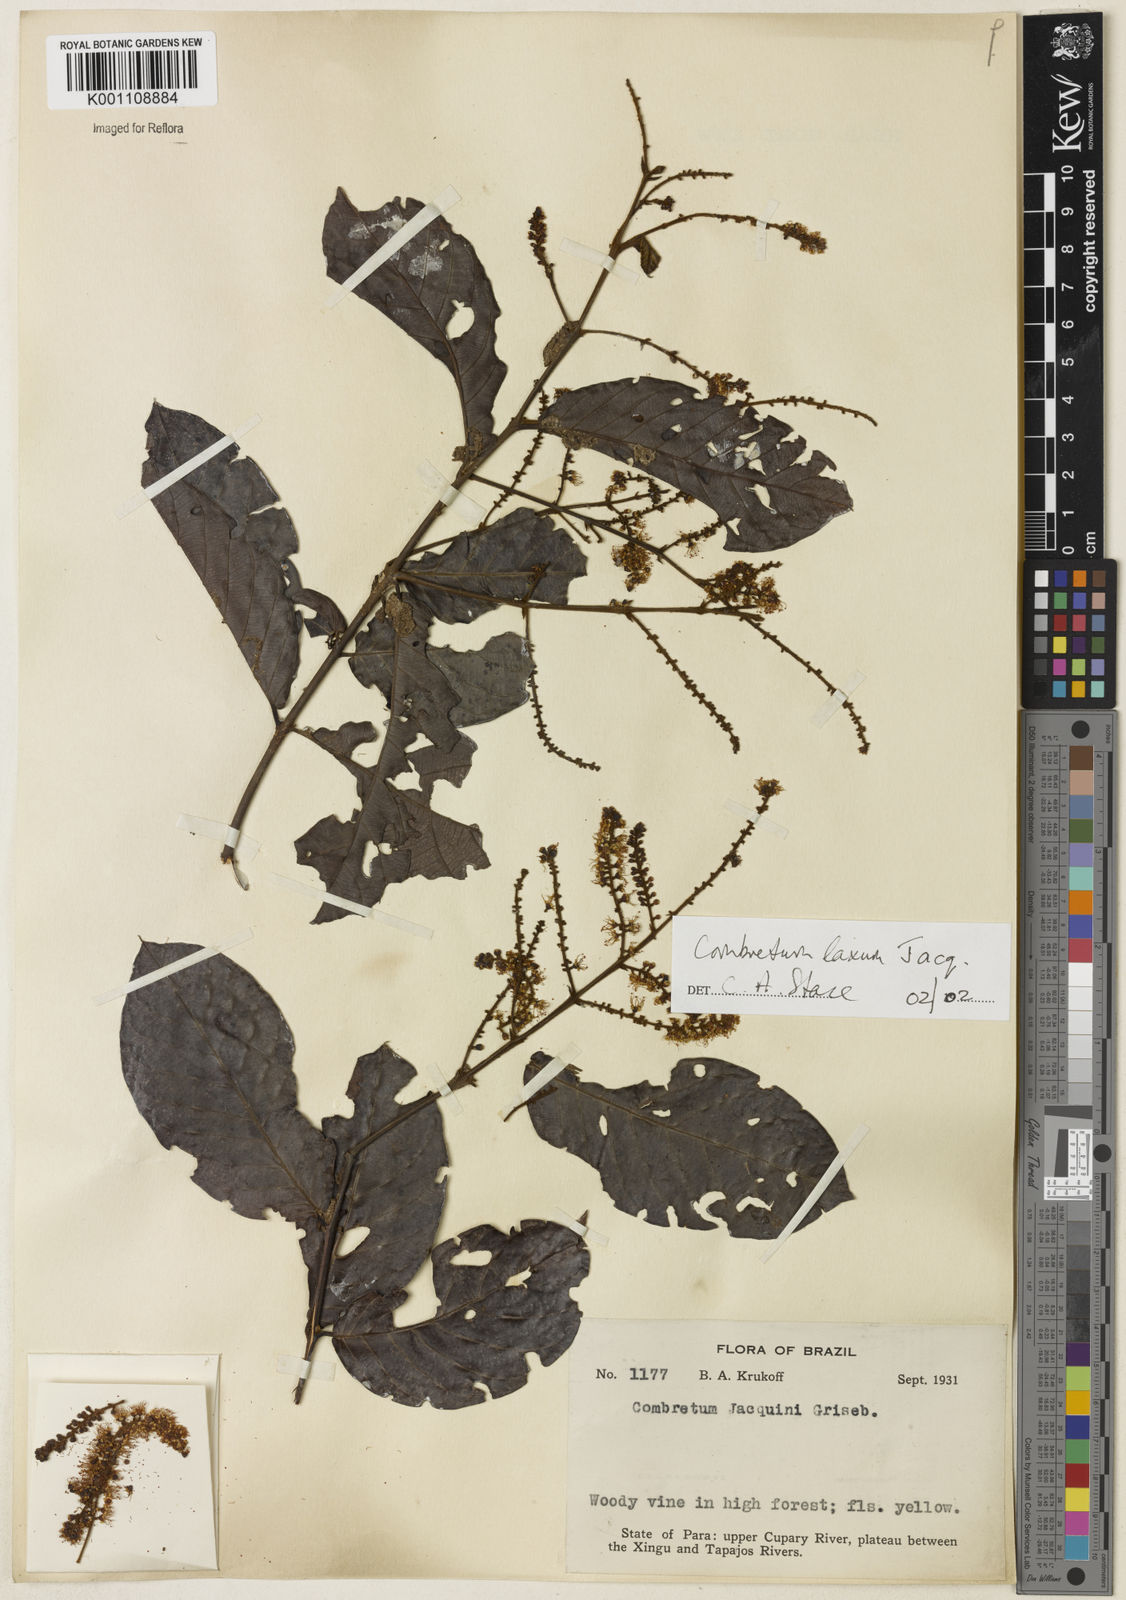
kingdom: Plantae
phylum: Tracheophyta
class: Magnoliopsida
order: Myrtales
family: Combretaceae
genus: Combretum
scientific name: Combretum laxum
